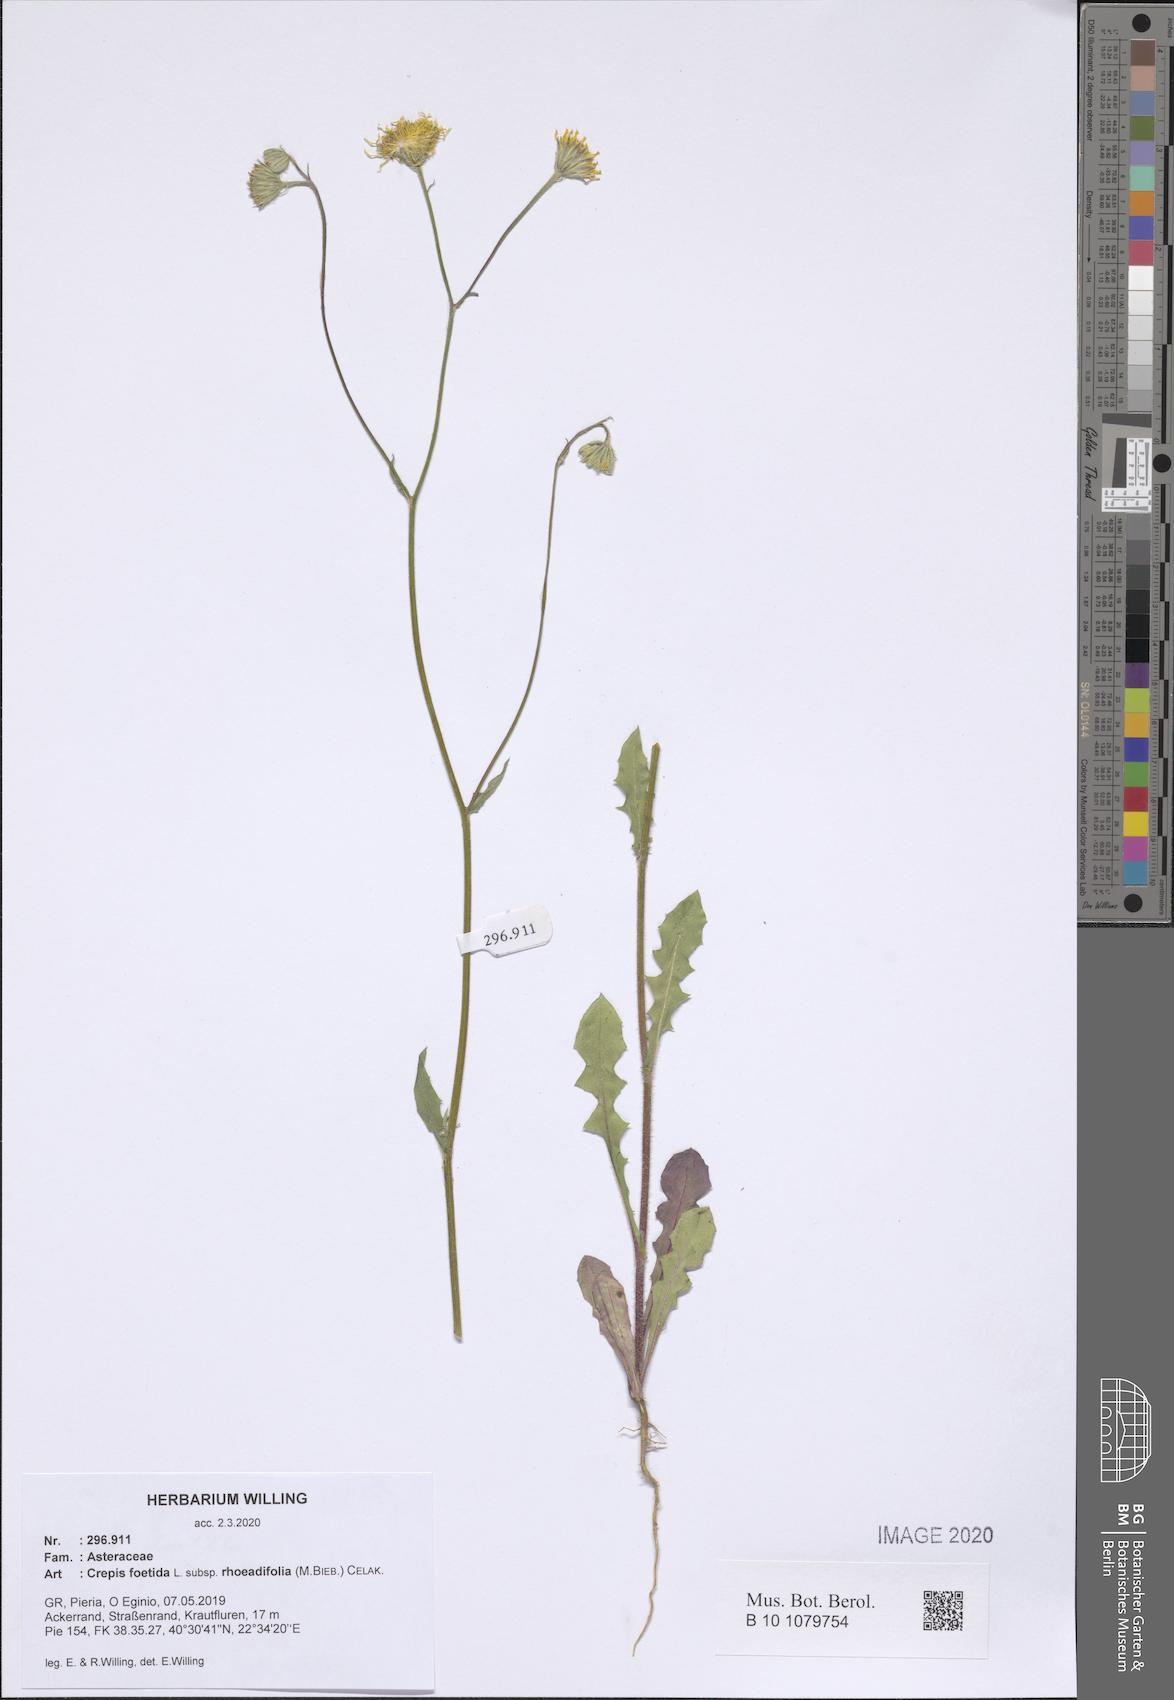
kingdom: Plantae
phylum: Tracheophyta
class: Magnoliopsida
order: Asterales
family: Asteraceae
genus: Crepis
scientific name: Crepis foetida
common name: Stinking hawk's-beard
